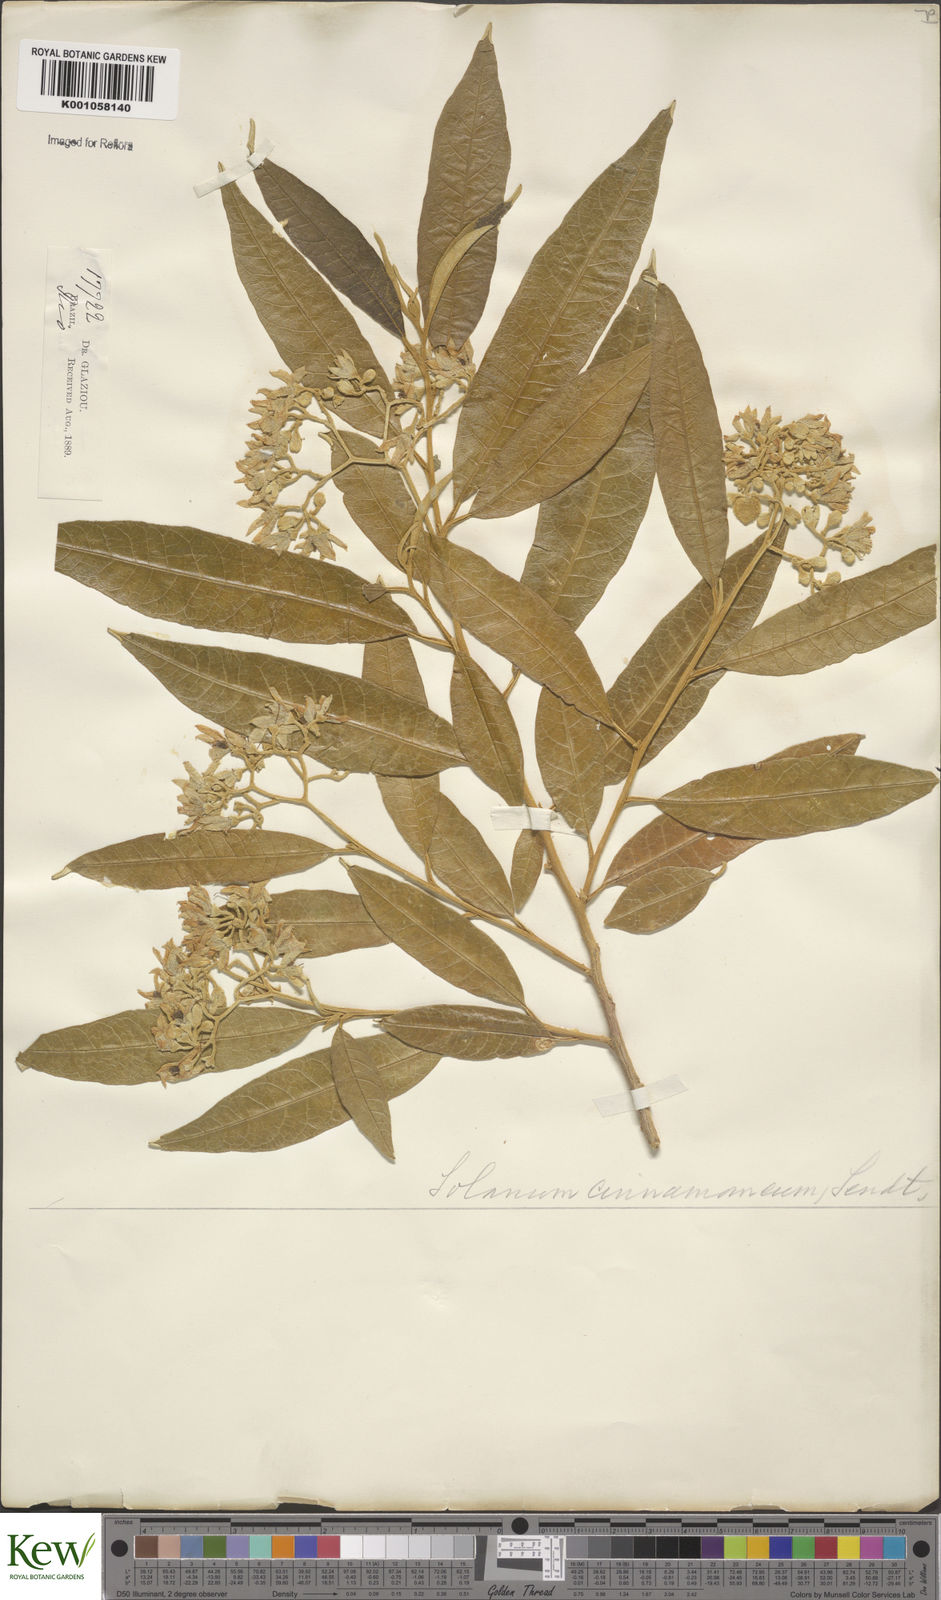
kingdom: Plantae
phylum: Tracheophyta
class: Magnoliopsida
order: Solanales
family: Solanaceae
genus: Solanum
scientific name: Solanum cinnamomeum
